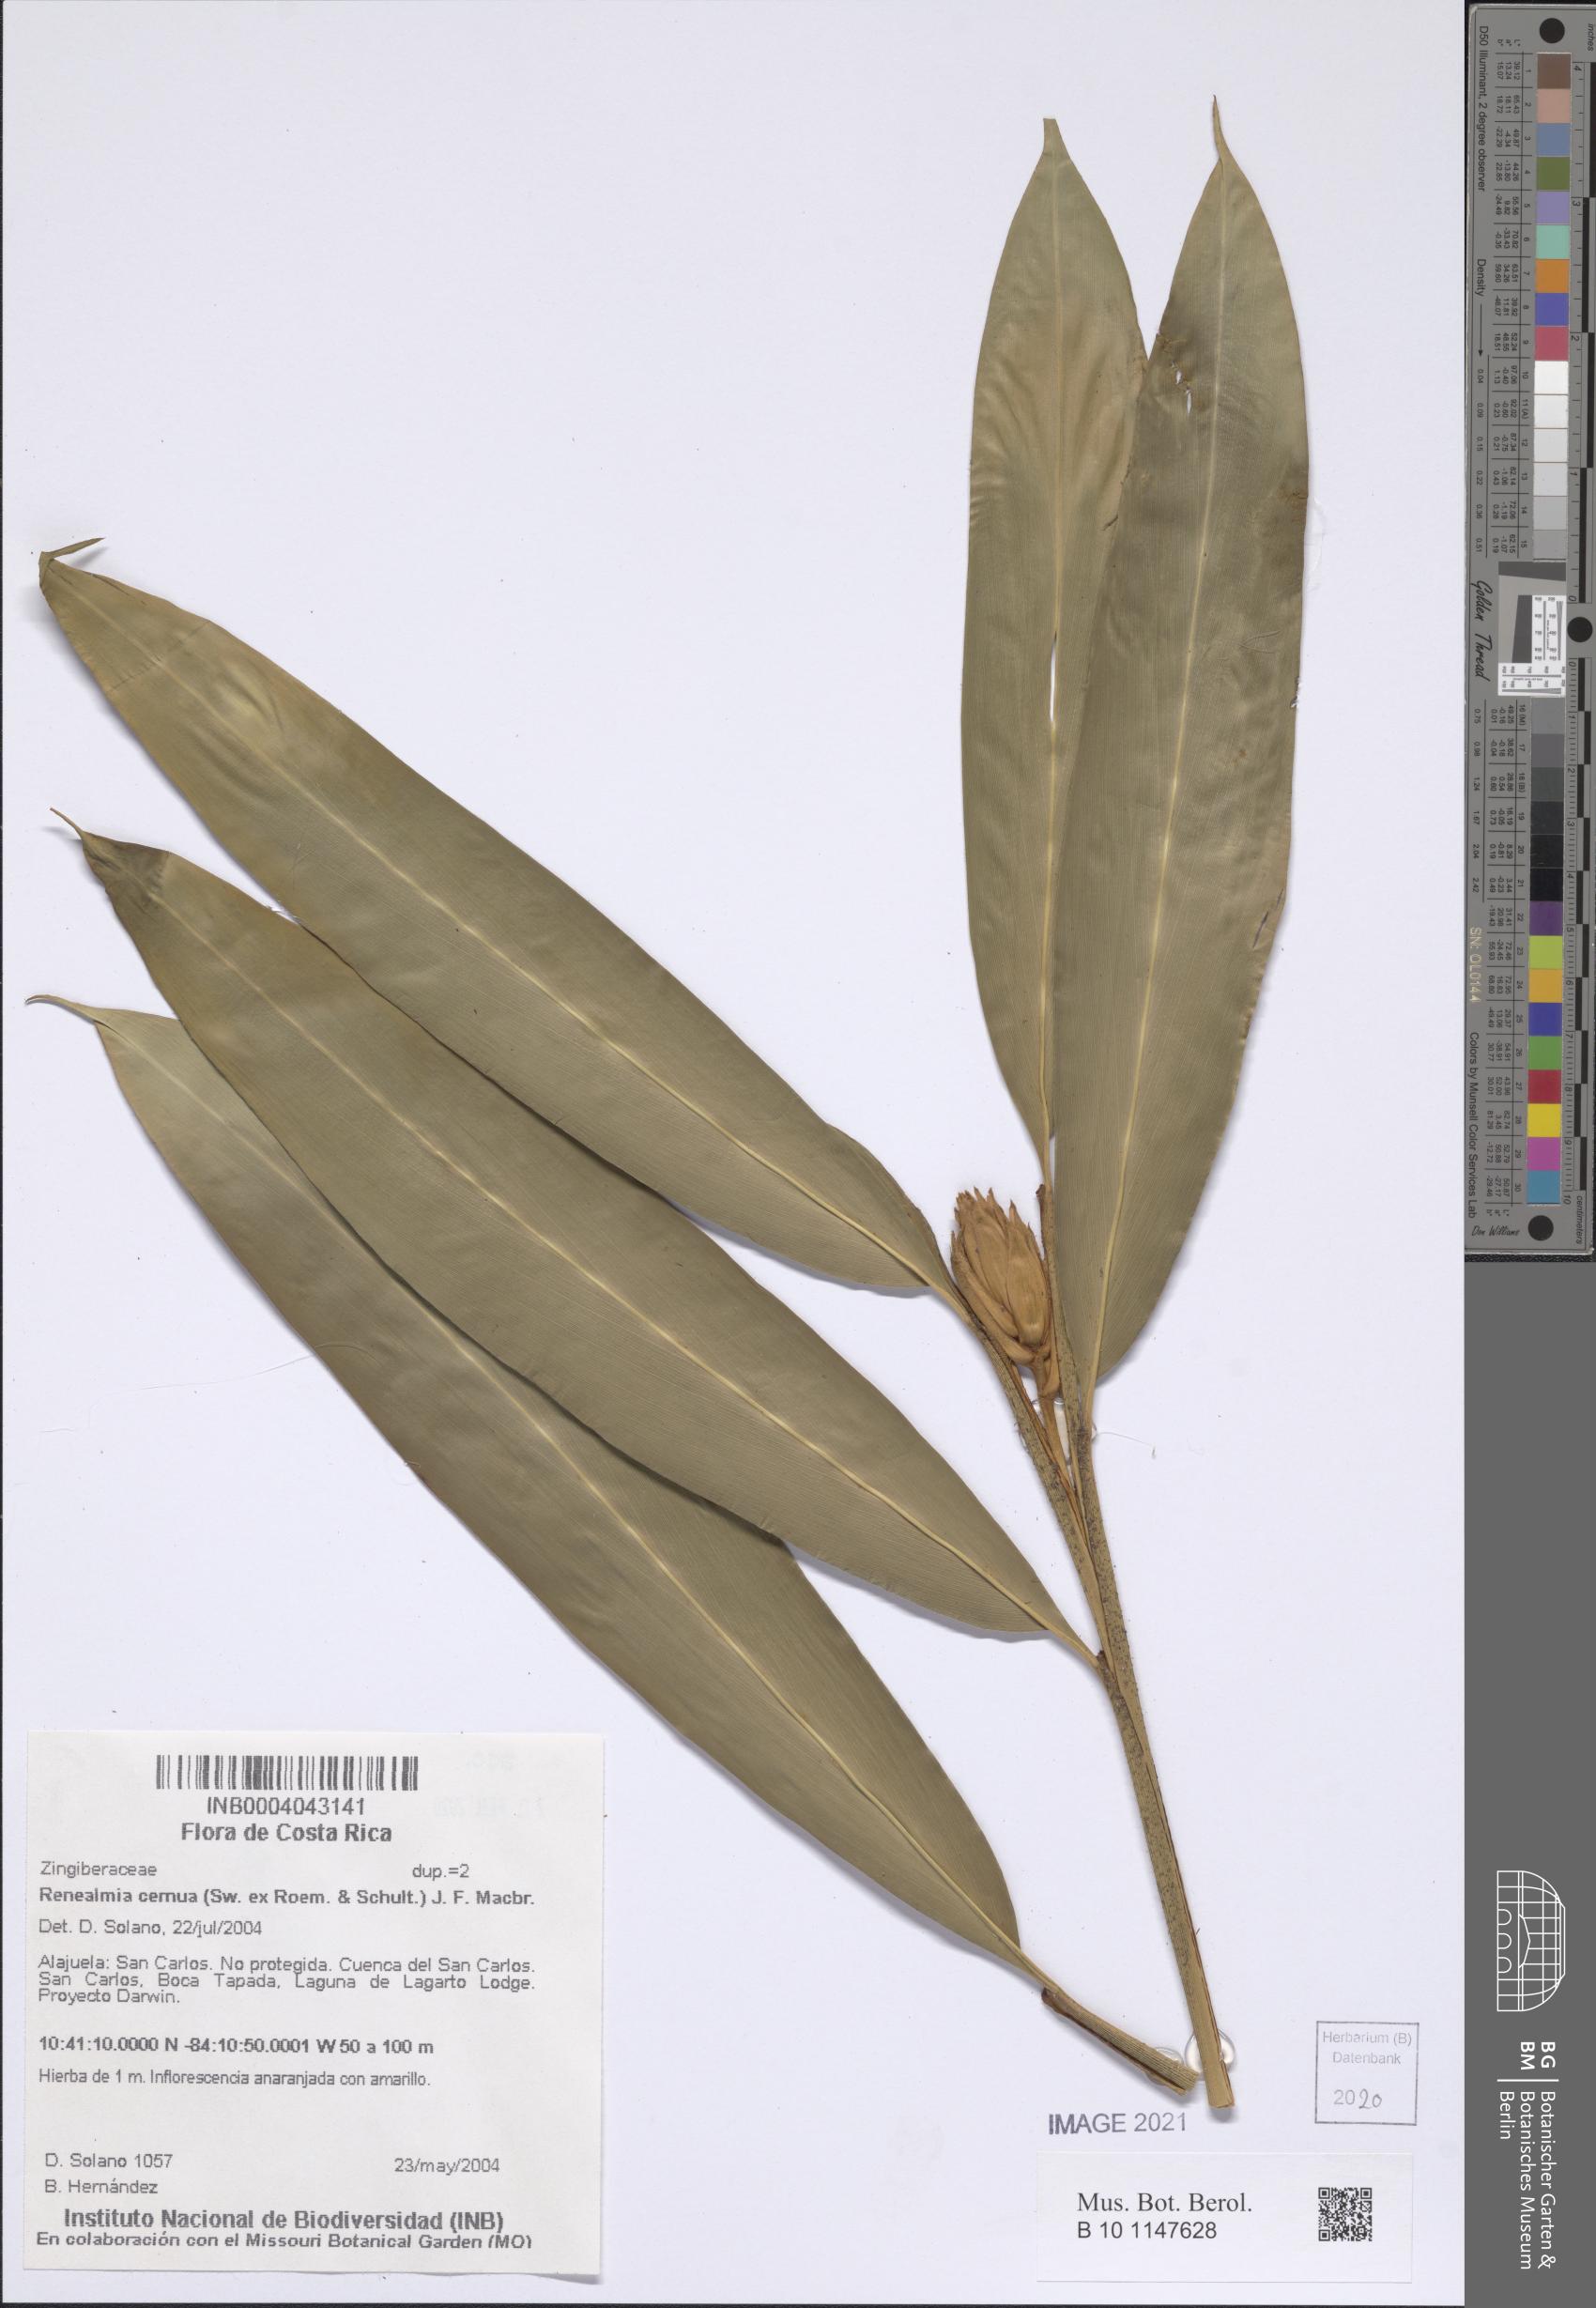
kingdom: Plantae
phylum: Tracheophyta
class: Liliopsida
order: Zingiberales
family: Zingiberaceae
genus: Renealmia
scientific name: Renealmia cernua
